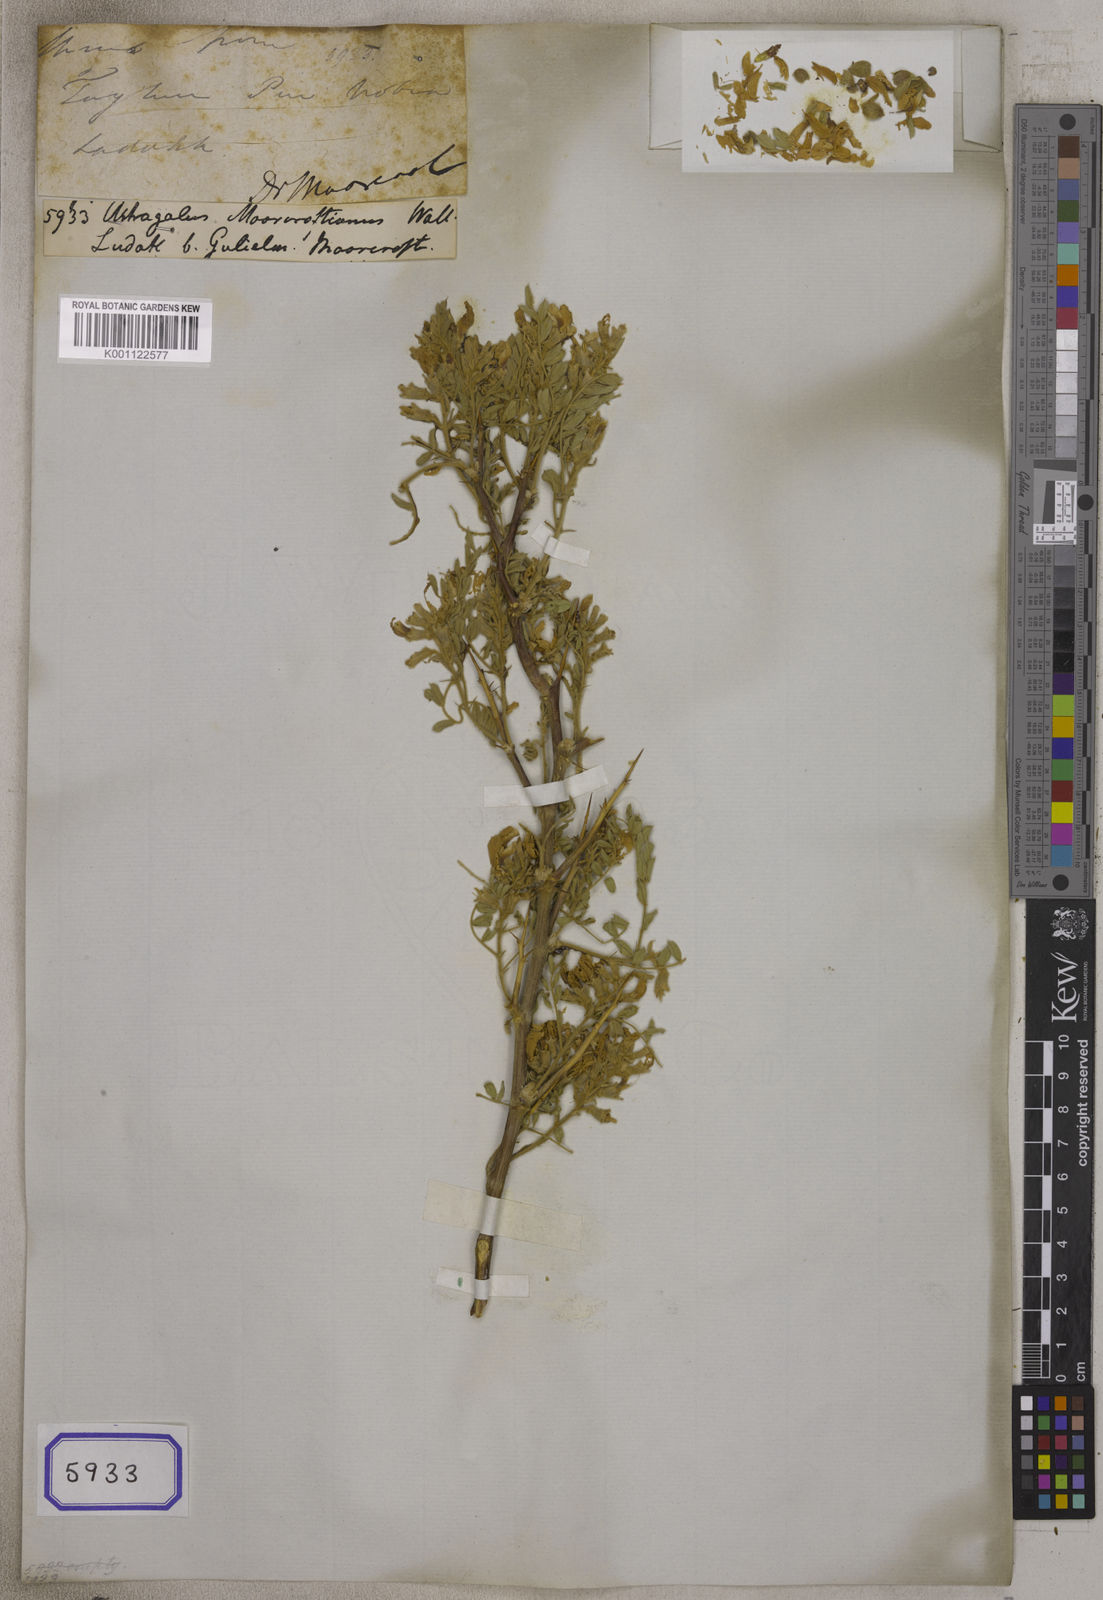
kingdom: Plantae
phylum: Tracheophyta
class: Magnoliopsida
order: Fabales
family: Fabaceae
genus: Astragalus
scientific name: Astragalus
